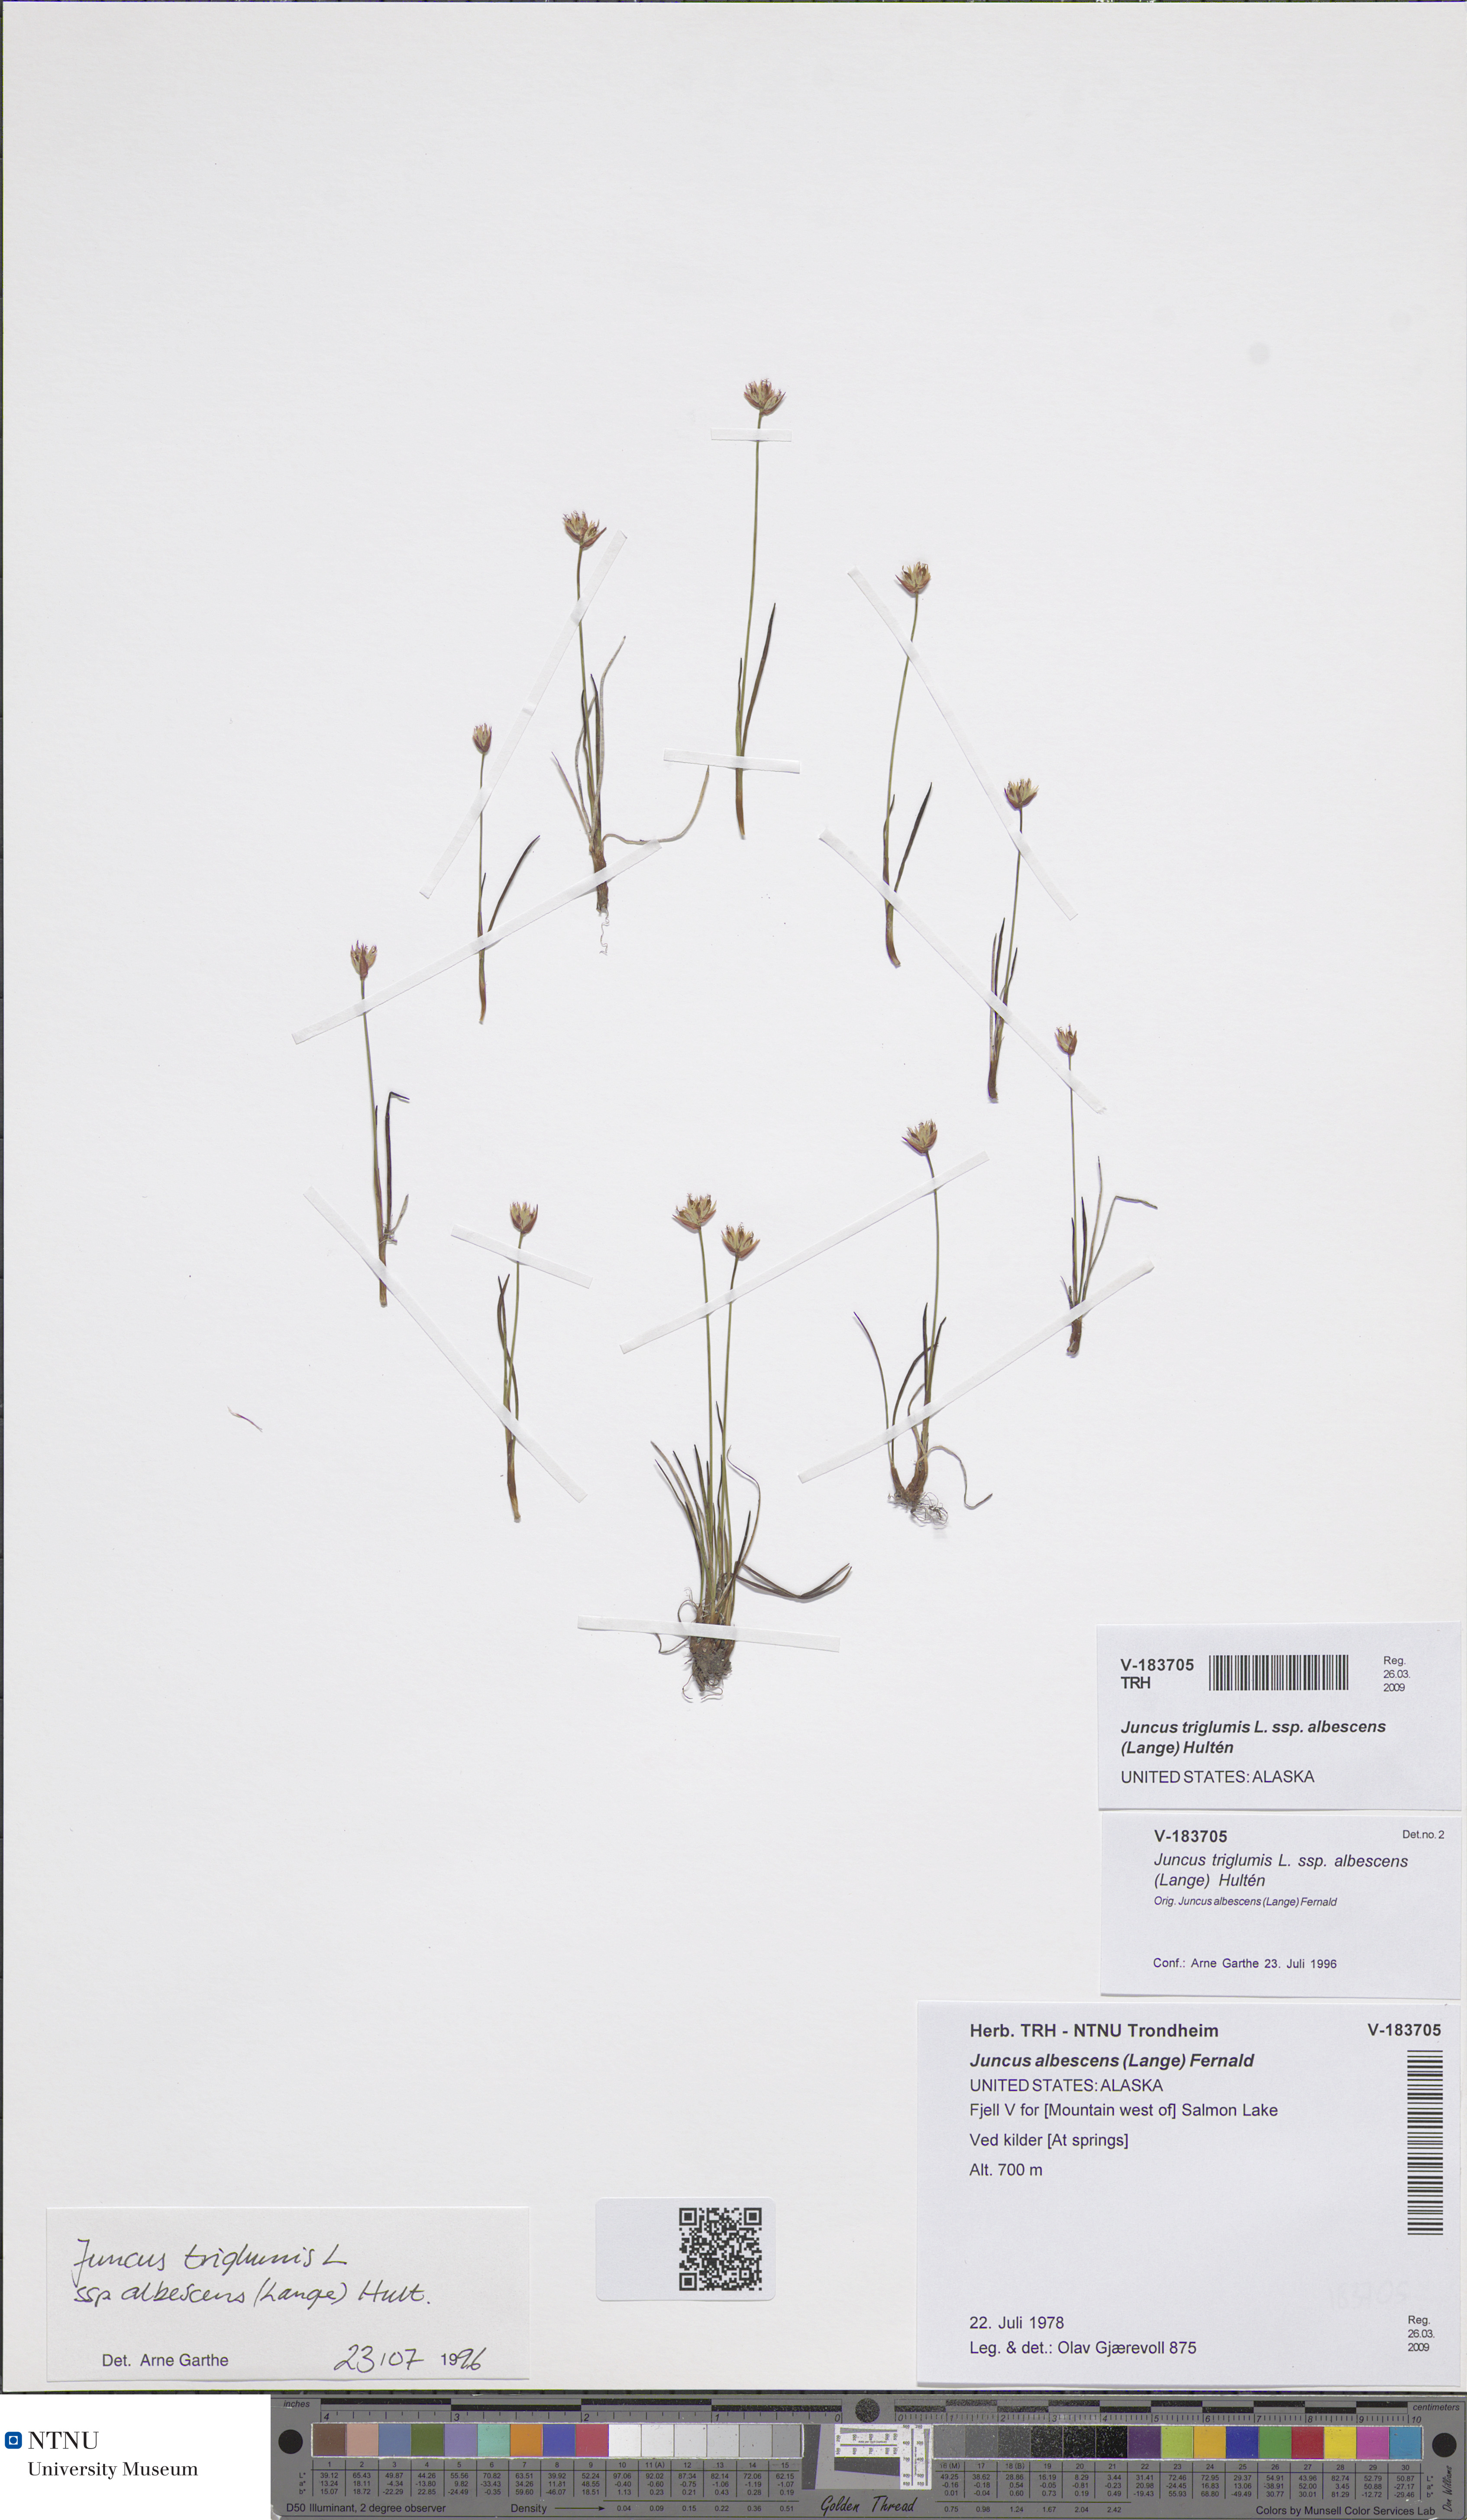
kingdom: Plantae
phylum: Tracheophyta
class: Liliopsida
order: Poales
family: Juncaceae
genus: Juncus
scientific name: Juncus albescens
